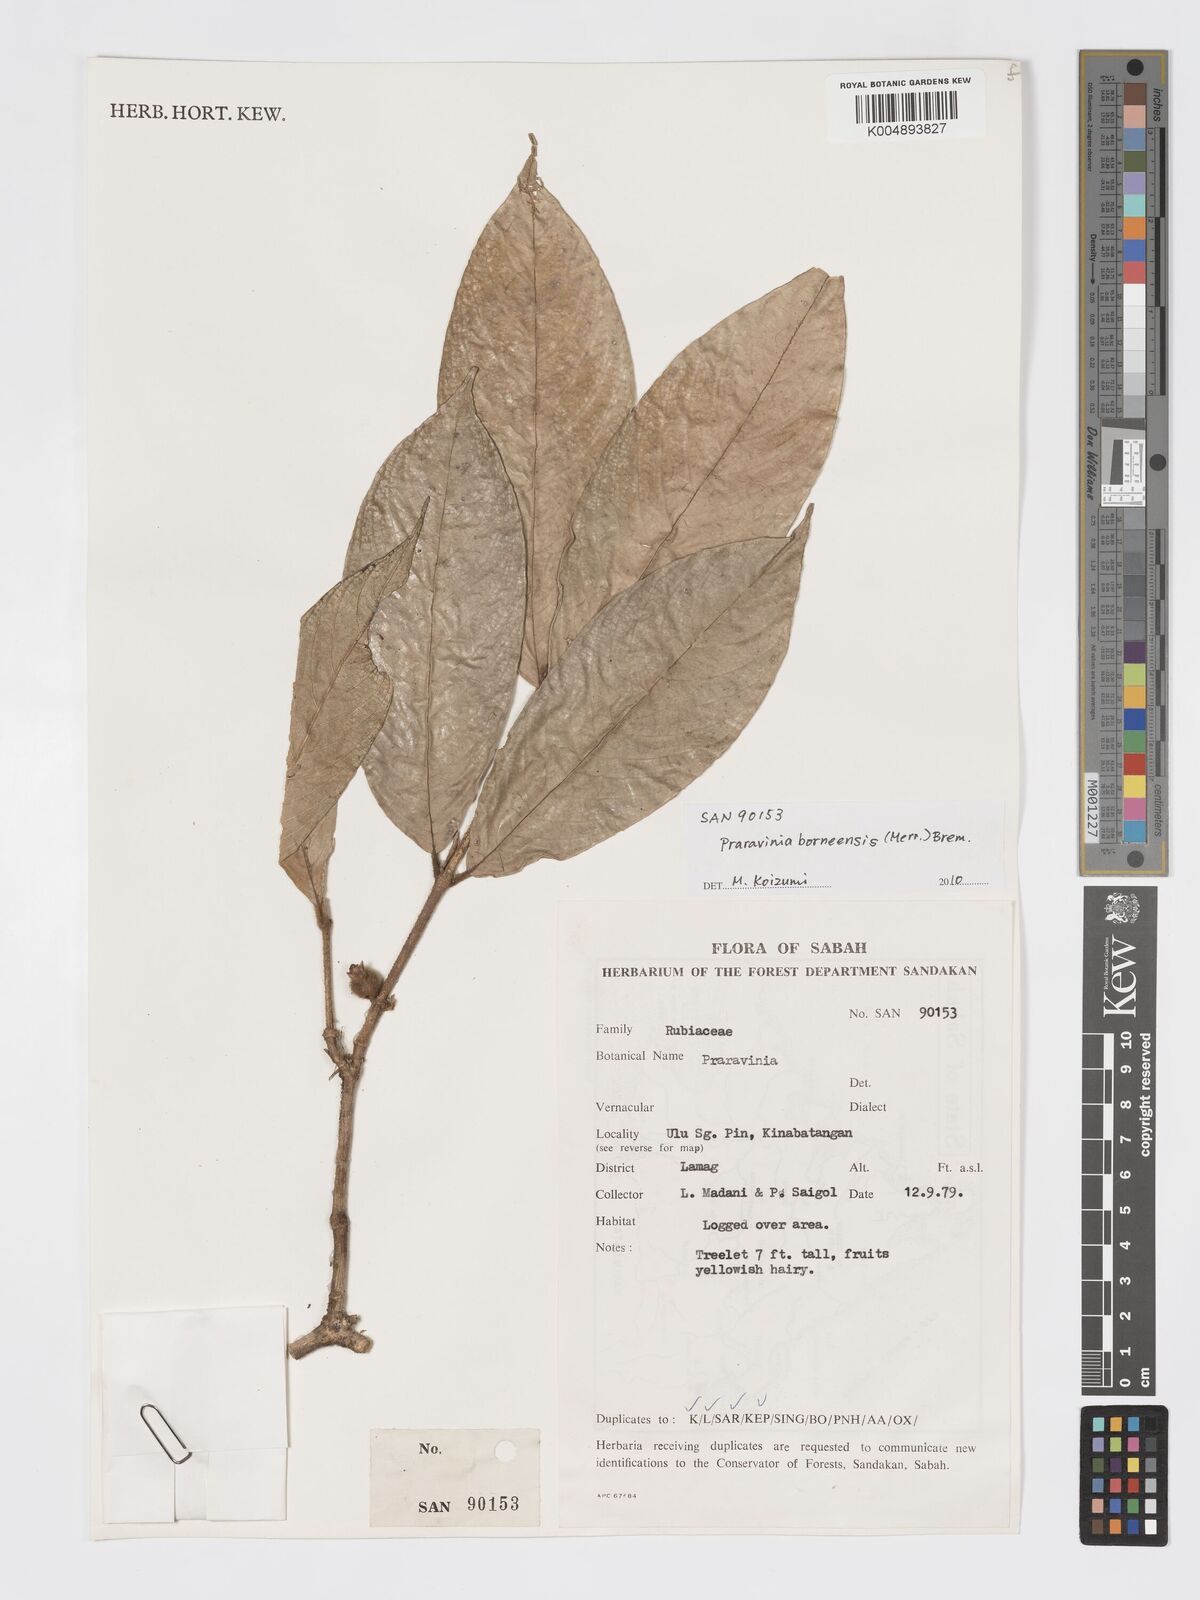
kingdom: Plantae
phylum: Tracheophyta
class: Magnoliopsida
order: Gentianales
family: Rubiaceae
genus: Praravinia
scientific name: Praravinia borneensis
